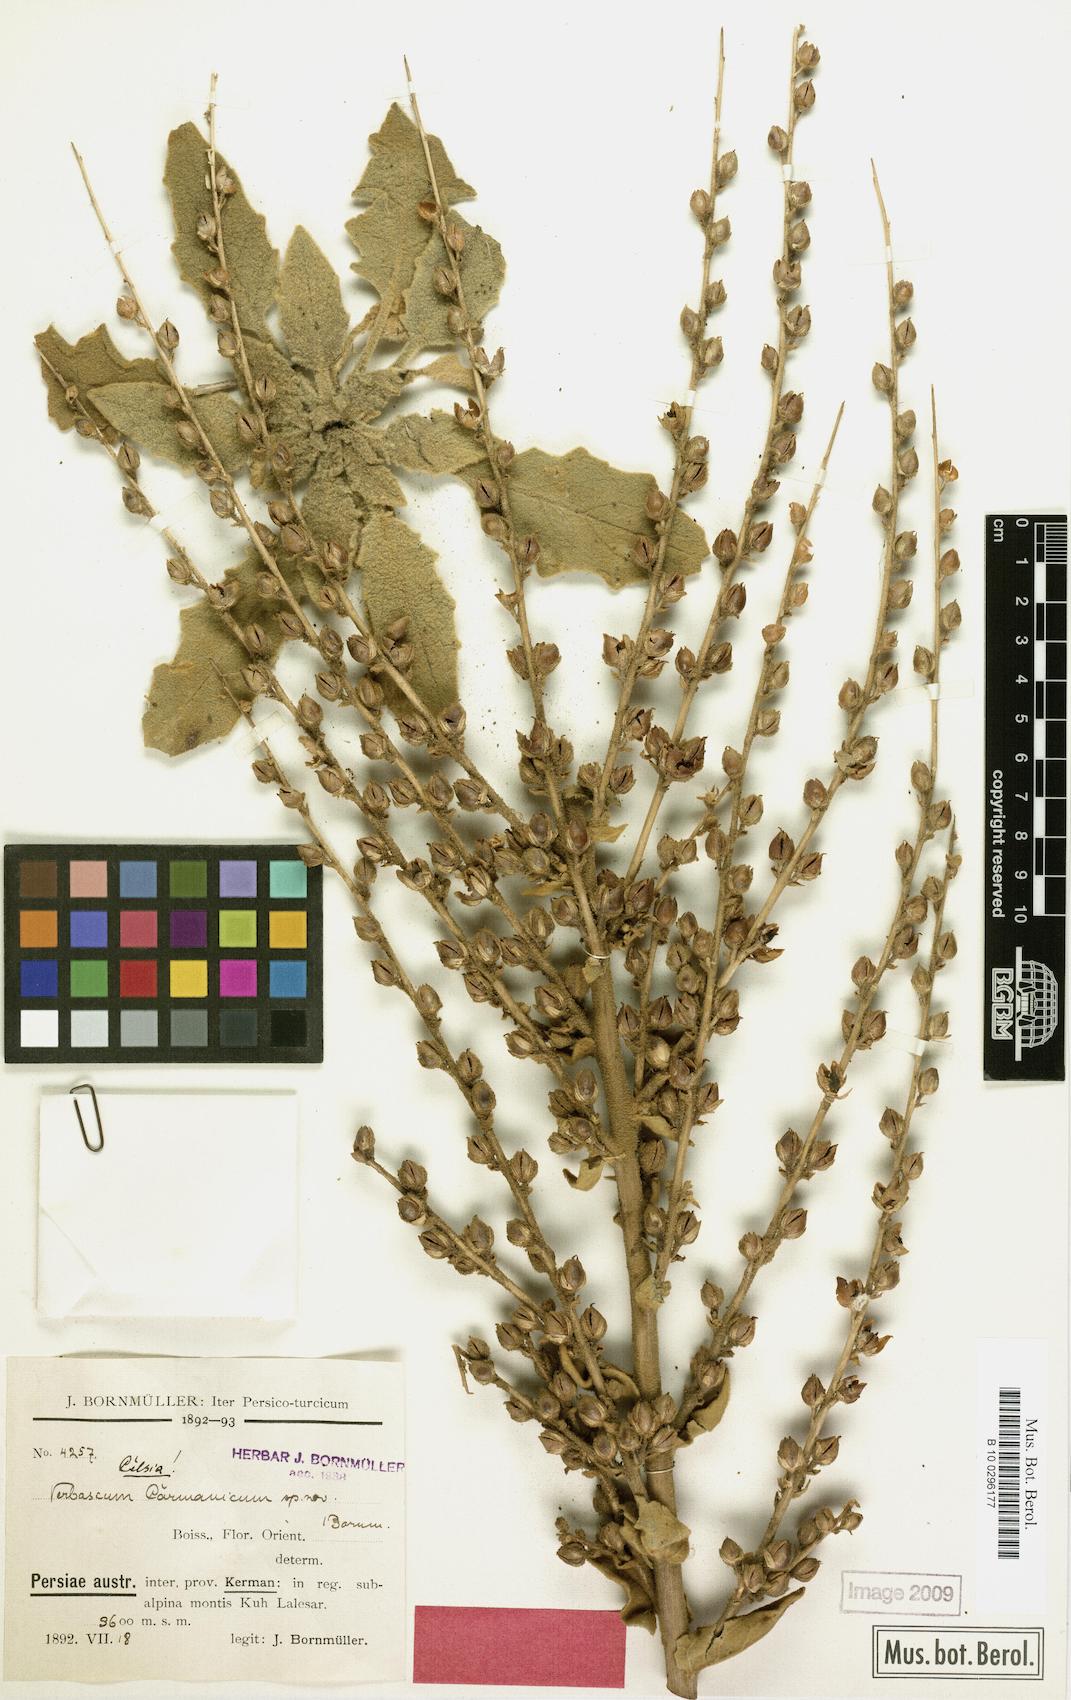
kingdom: Plantae
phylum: Tracheophyta
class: Magnoliopsida
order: Lamiales
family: Scrophulariaceae
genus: Verbascum
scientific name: Verbascum carmanicum
